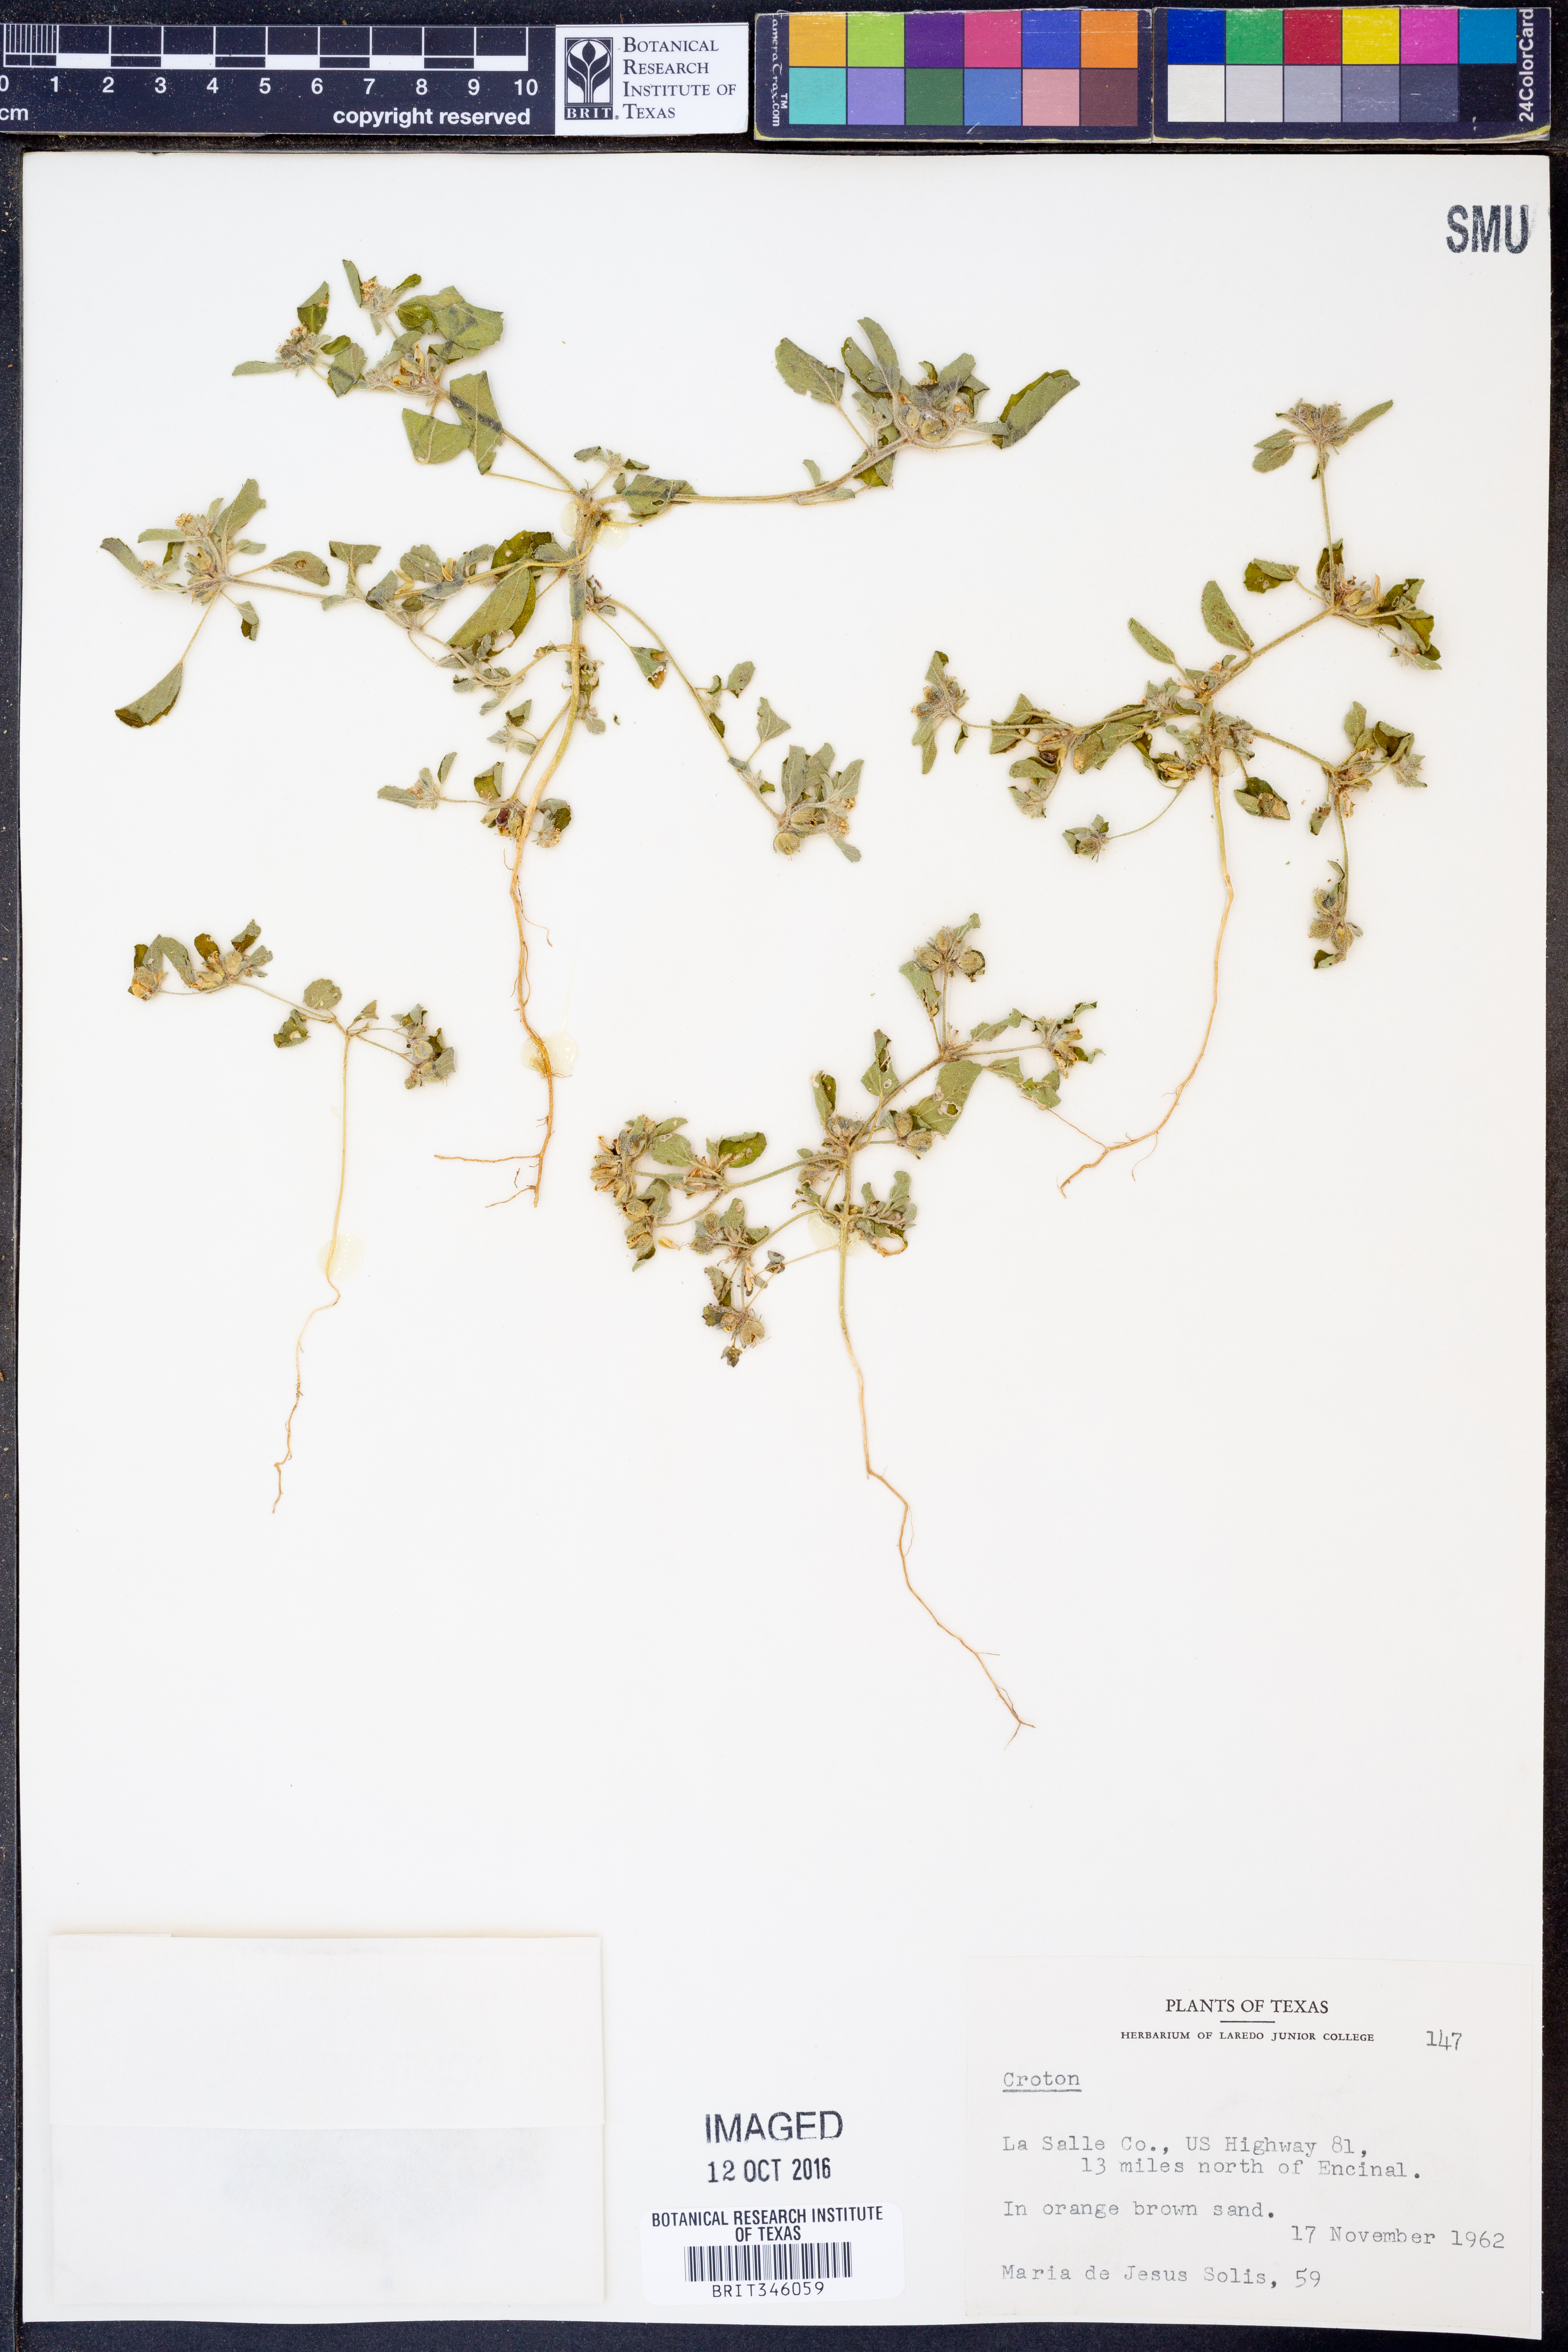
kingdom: Plantae
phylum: Tracheophyta
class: Magnoliopsida
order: Malpighiales
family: Euphorbiaceae
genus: Croton
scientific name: Croton
